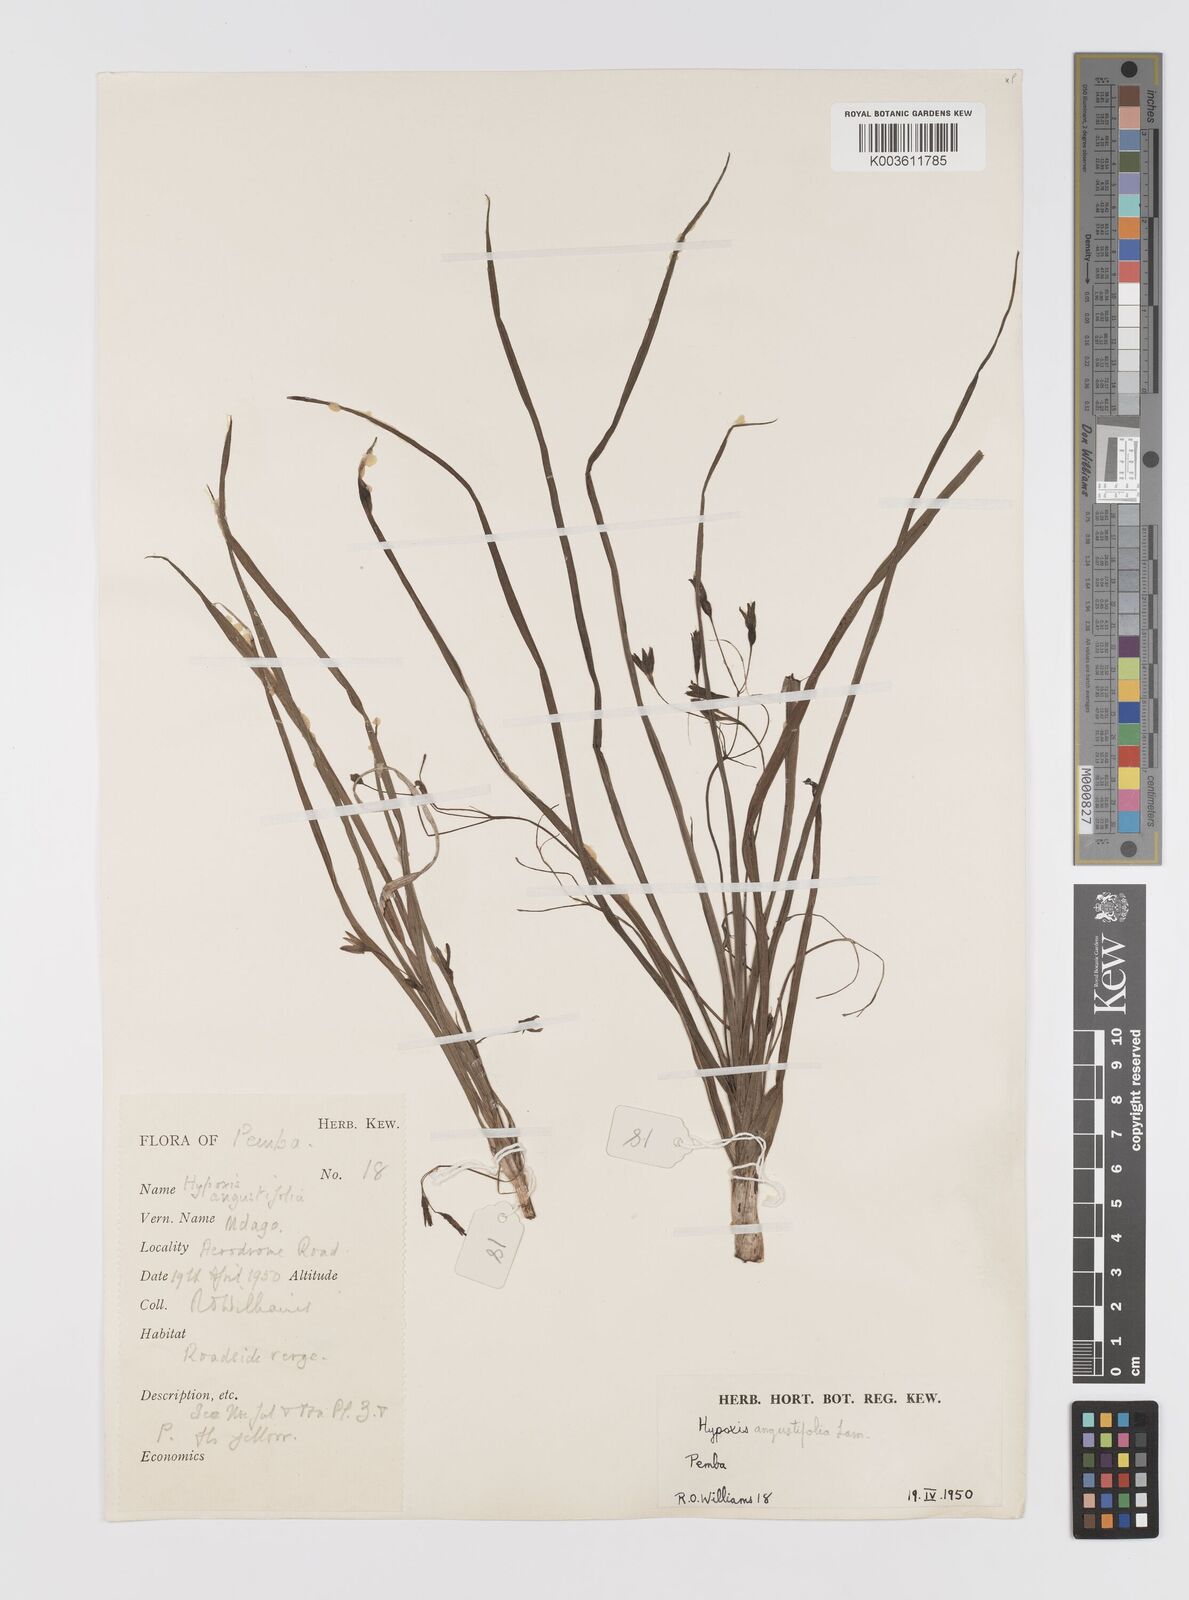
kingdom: Plantae
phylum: Tracheophyta
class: Liliopsida
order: Asparagales
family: Hypoxidaceae
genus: Hypoxis
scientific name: Hypoxis angustifolia
